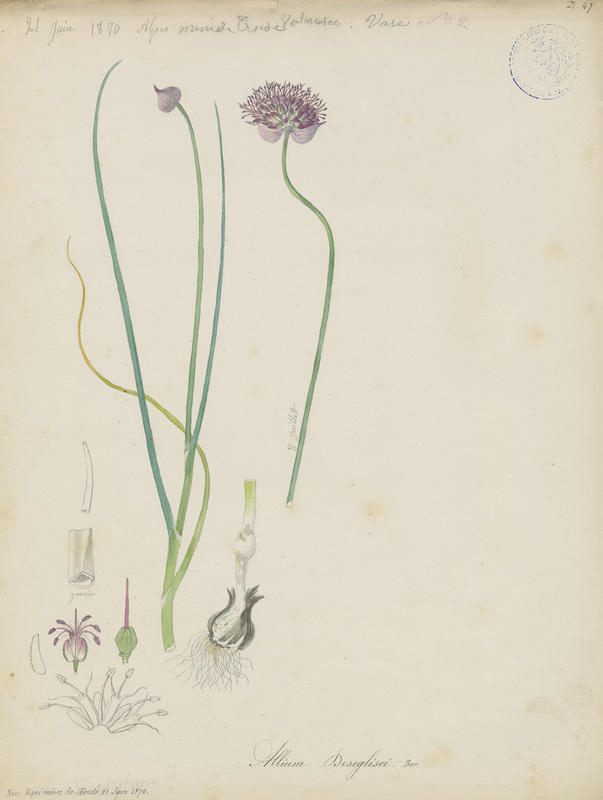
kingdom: Plantae
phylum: Tracheophyta
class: Liliopsida
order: Asparagales
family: Amaryllidaceae
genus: Allium
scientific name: Allium sphaerocephalon
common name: Round-headed leek
